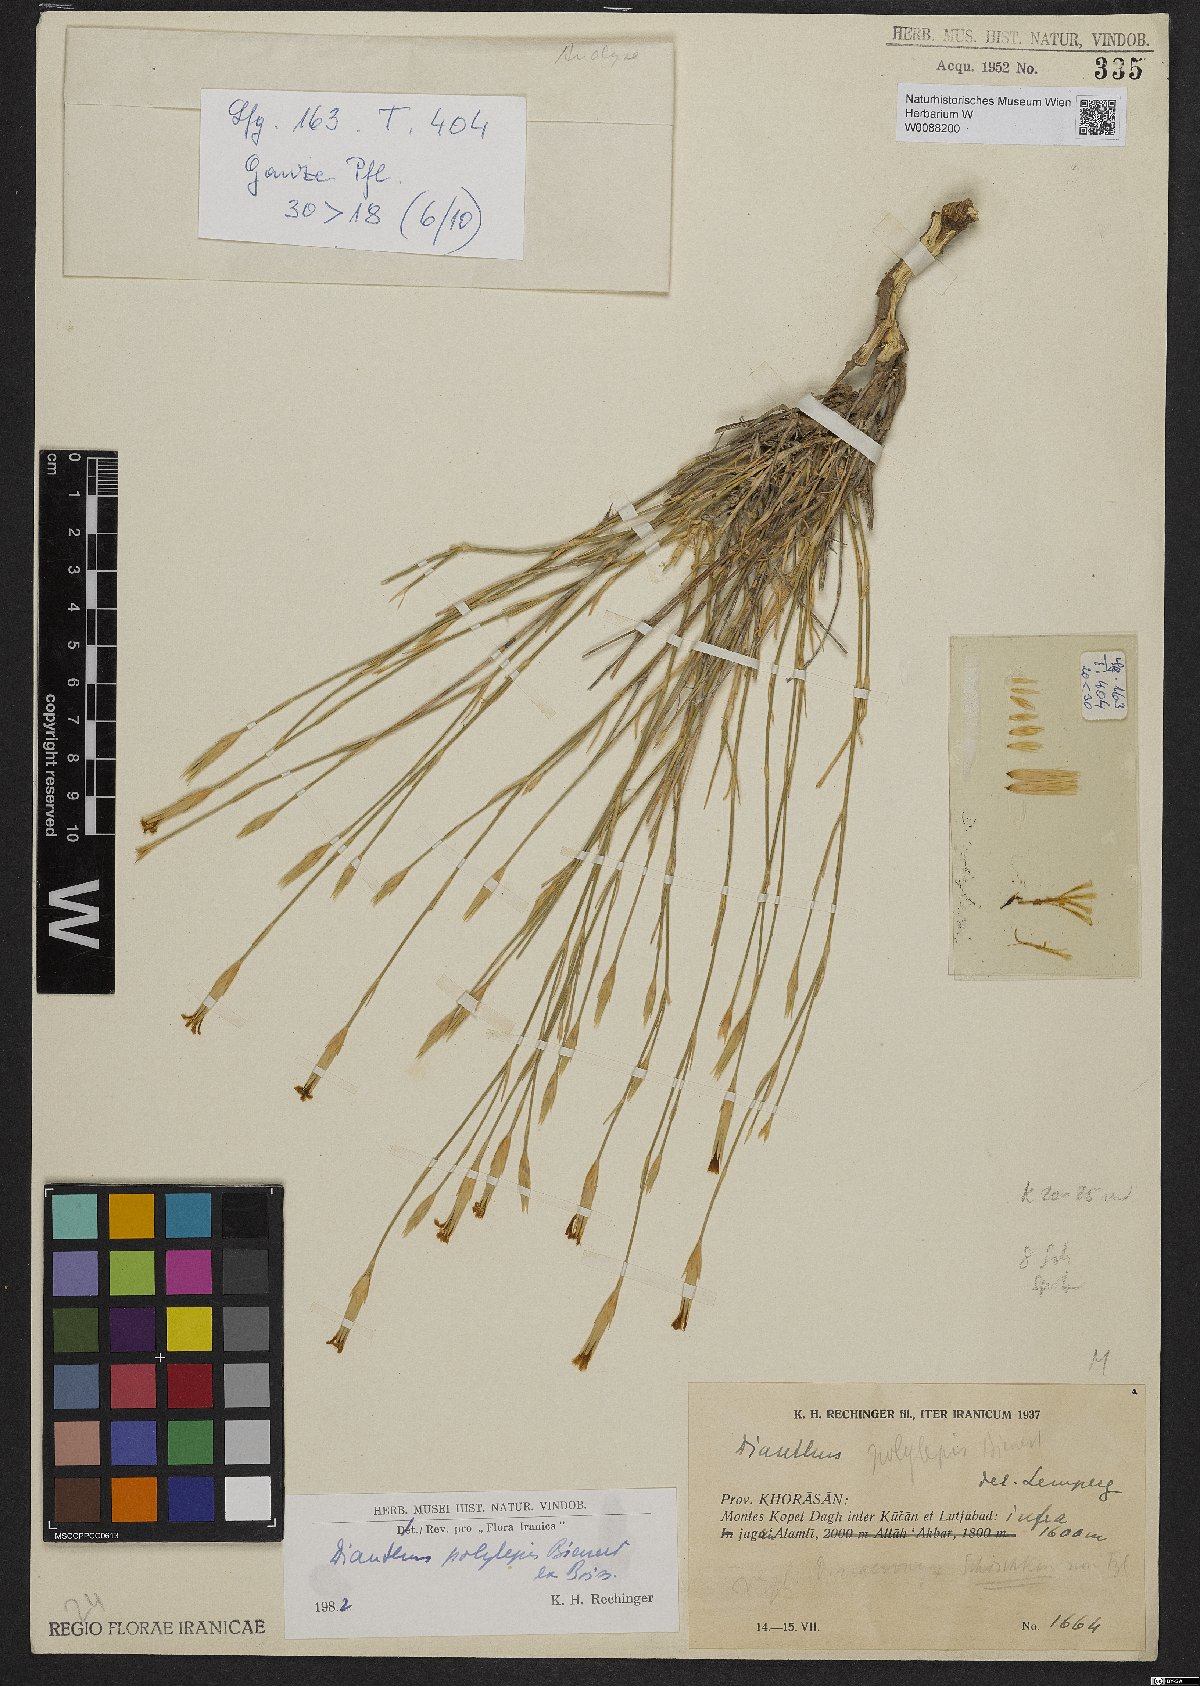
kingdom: Plantae
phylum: Tracheophyta
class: Magnoliopsida
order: Caryophyllales
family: Caryophyllaceae
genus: Dianthus
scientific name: Dianthus polylepis
